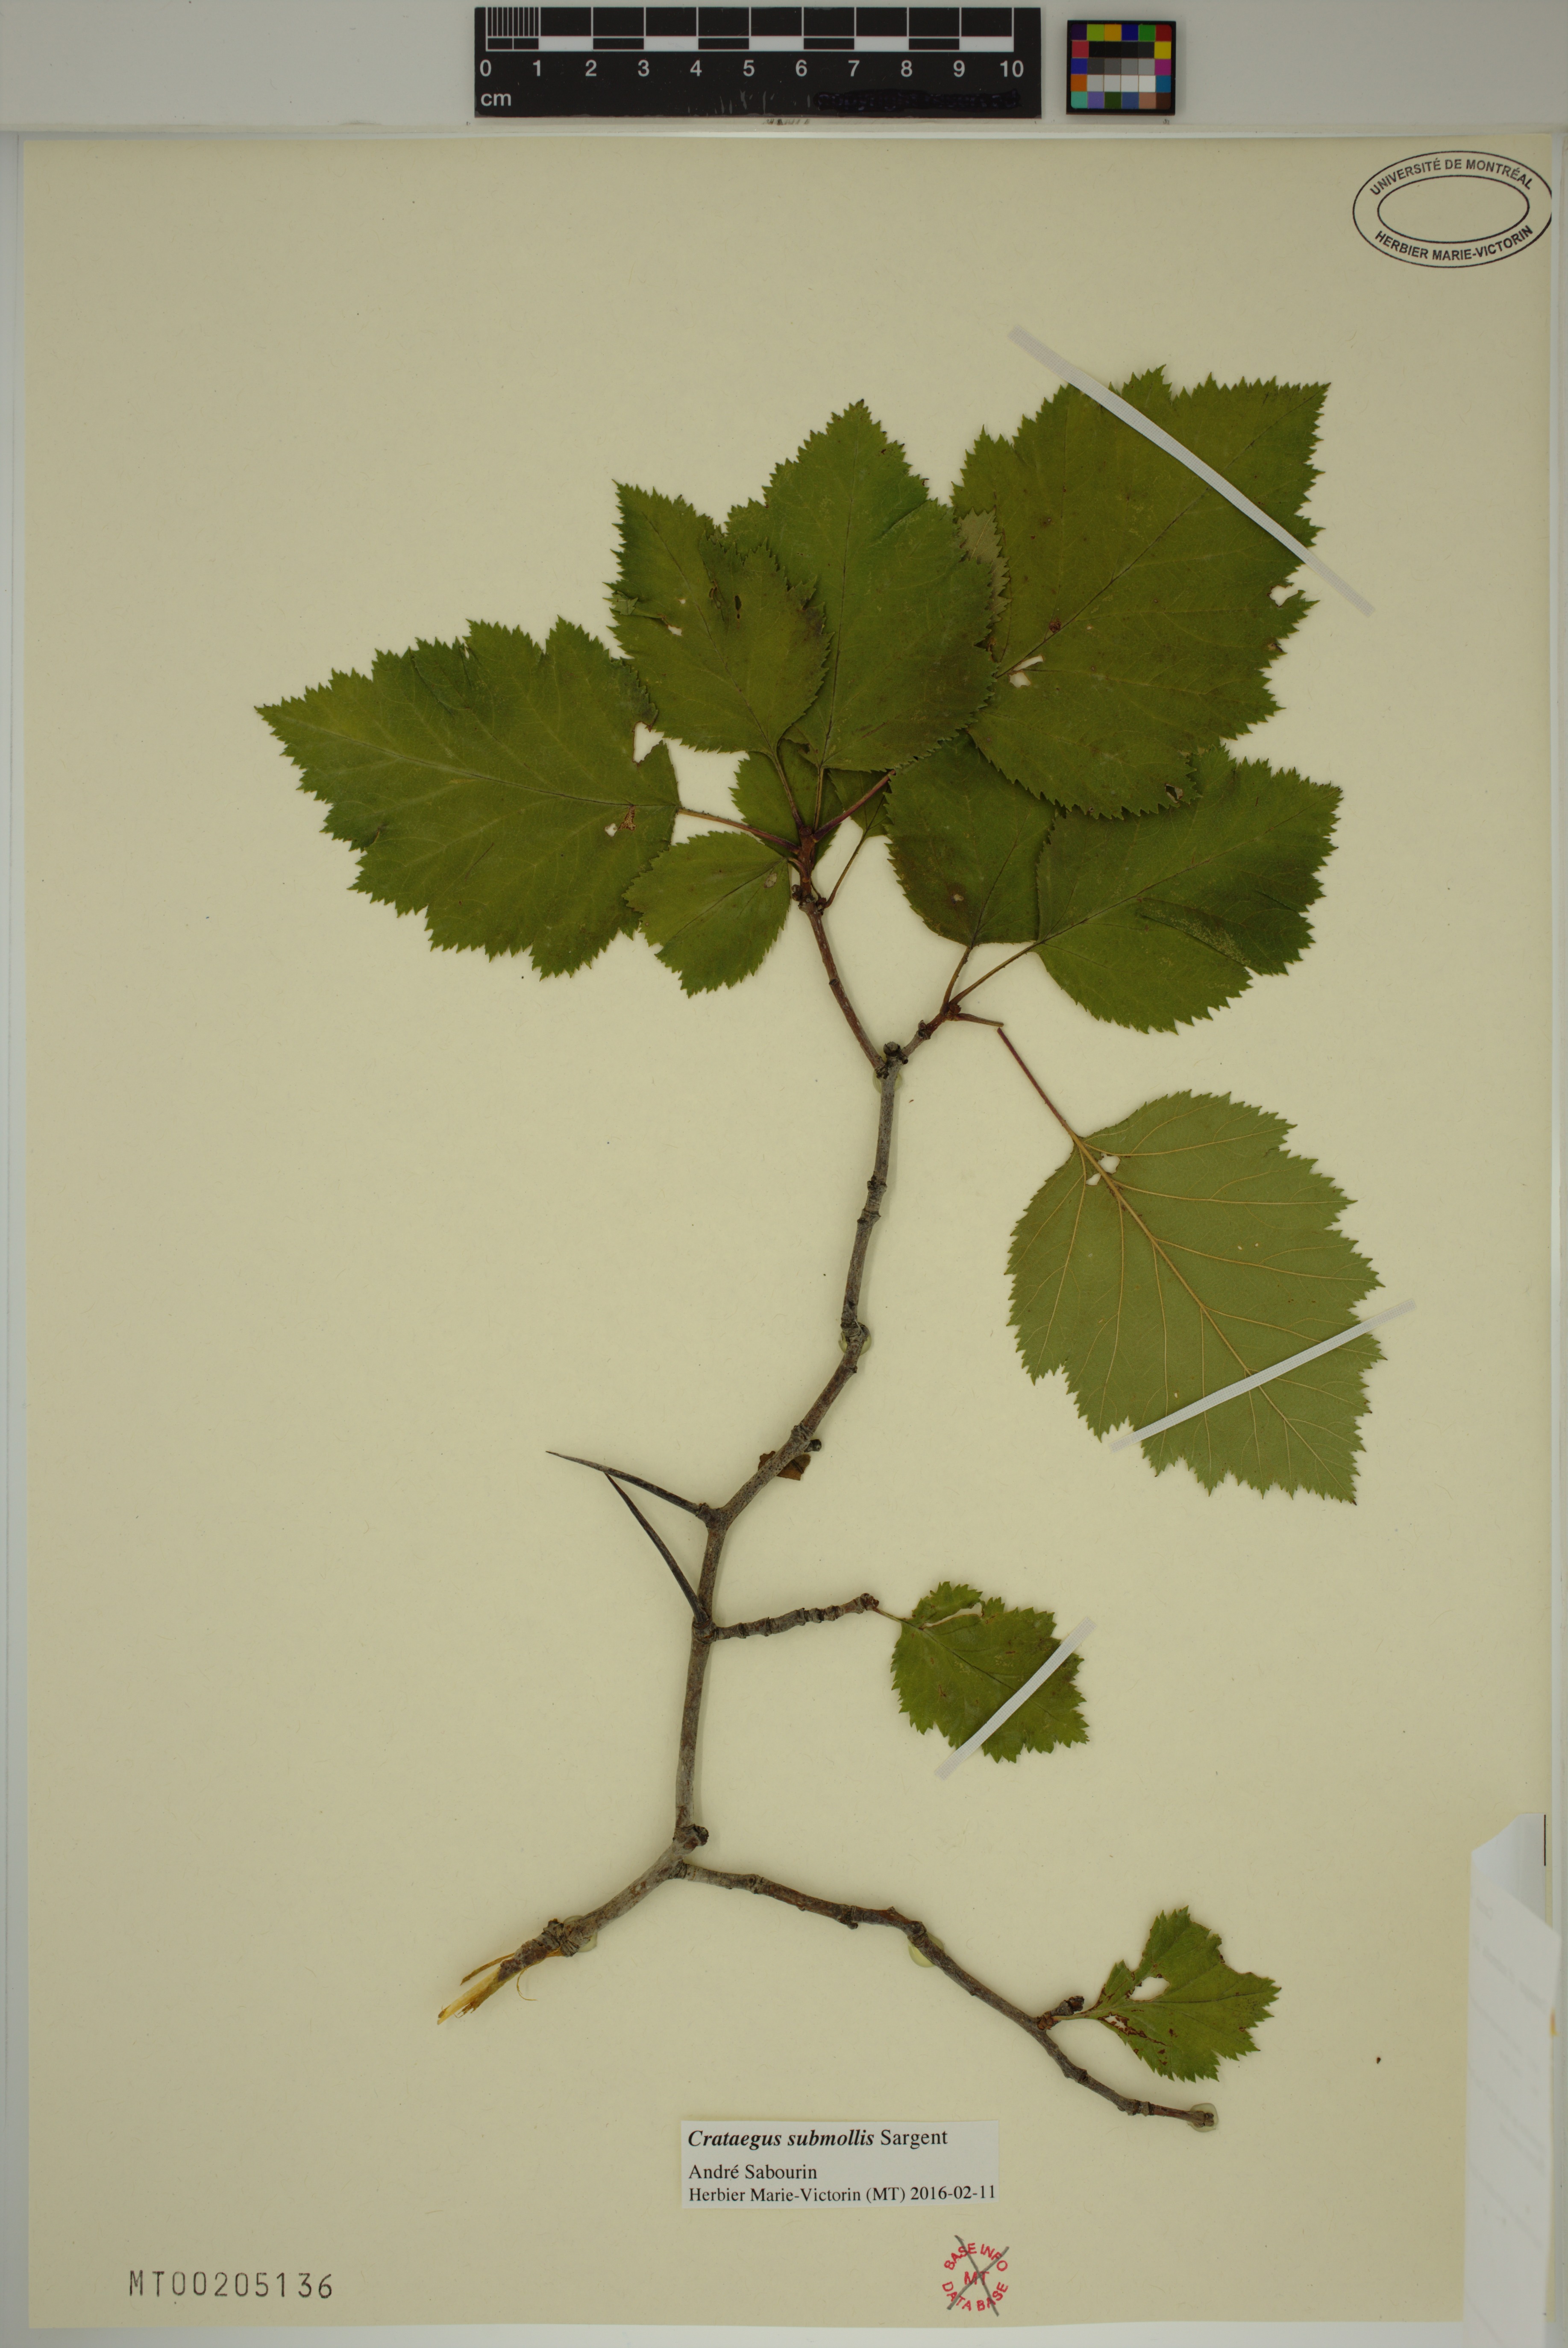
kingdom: Plantae
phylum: Tracheophyta
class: Magnoliopsida
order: Rosales
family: Rosaceae
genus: Crataegus
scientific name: Crataegus submollis
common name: Hairy cockspurthorn
